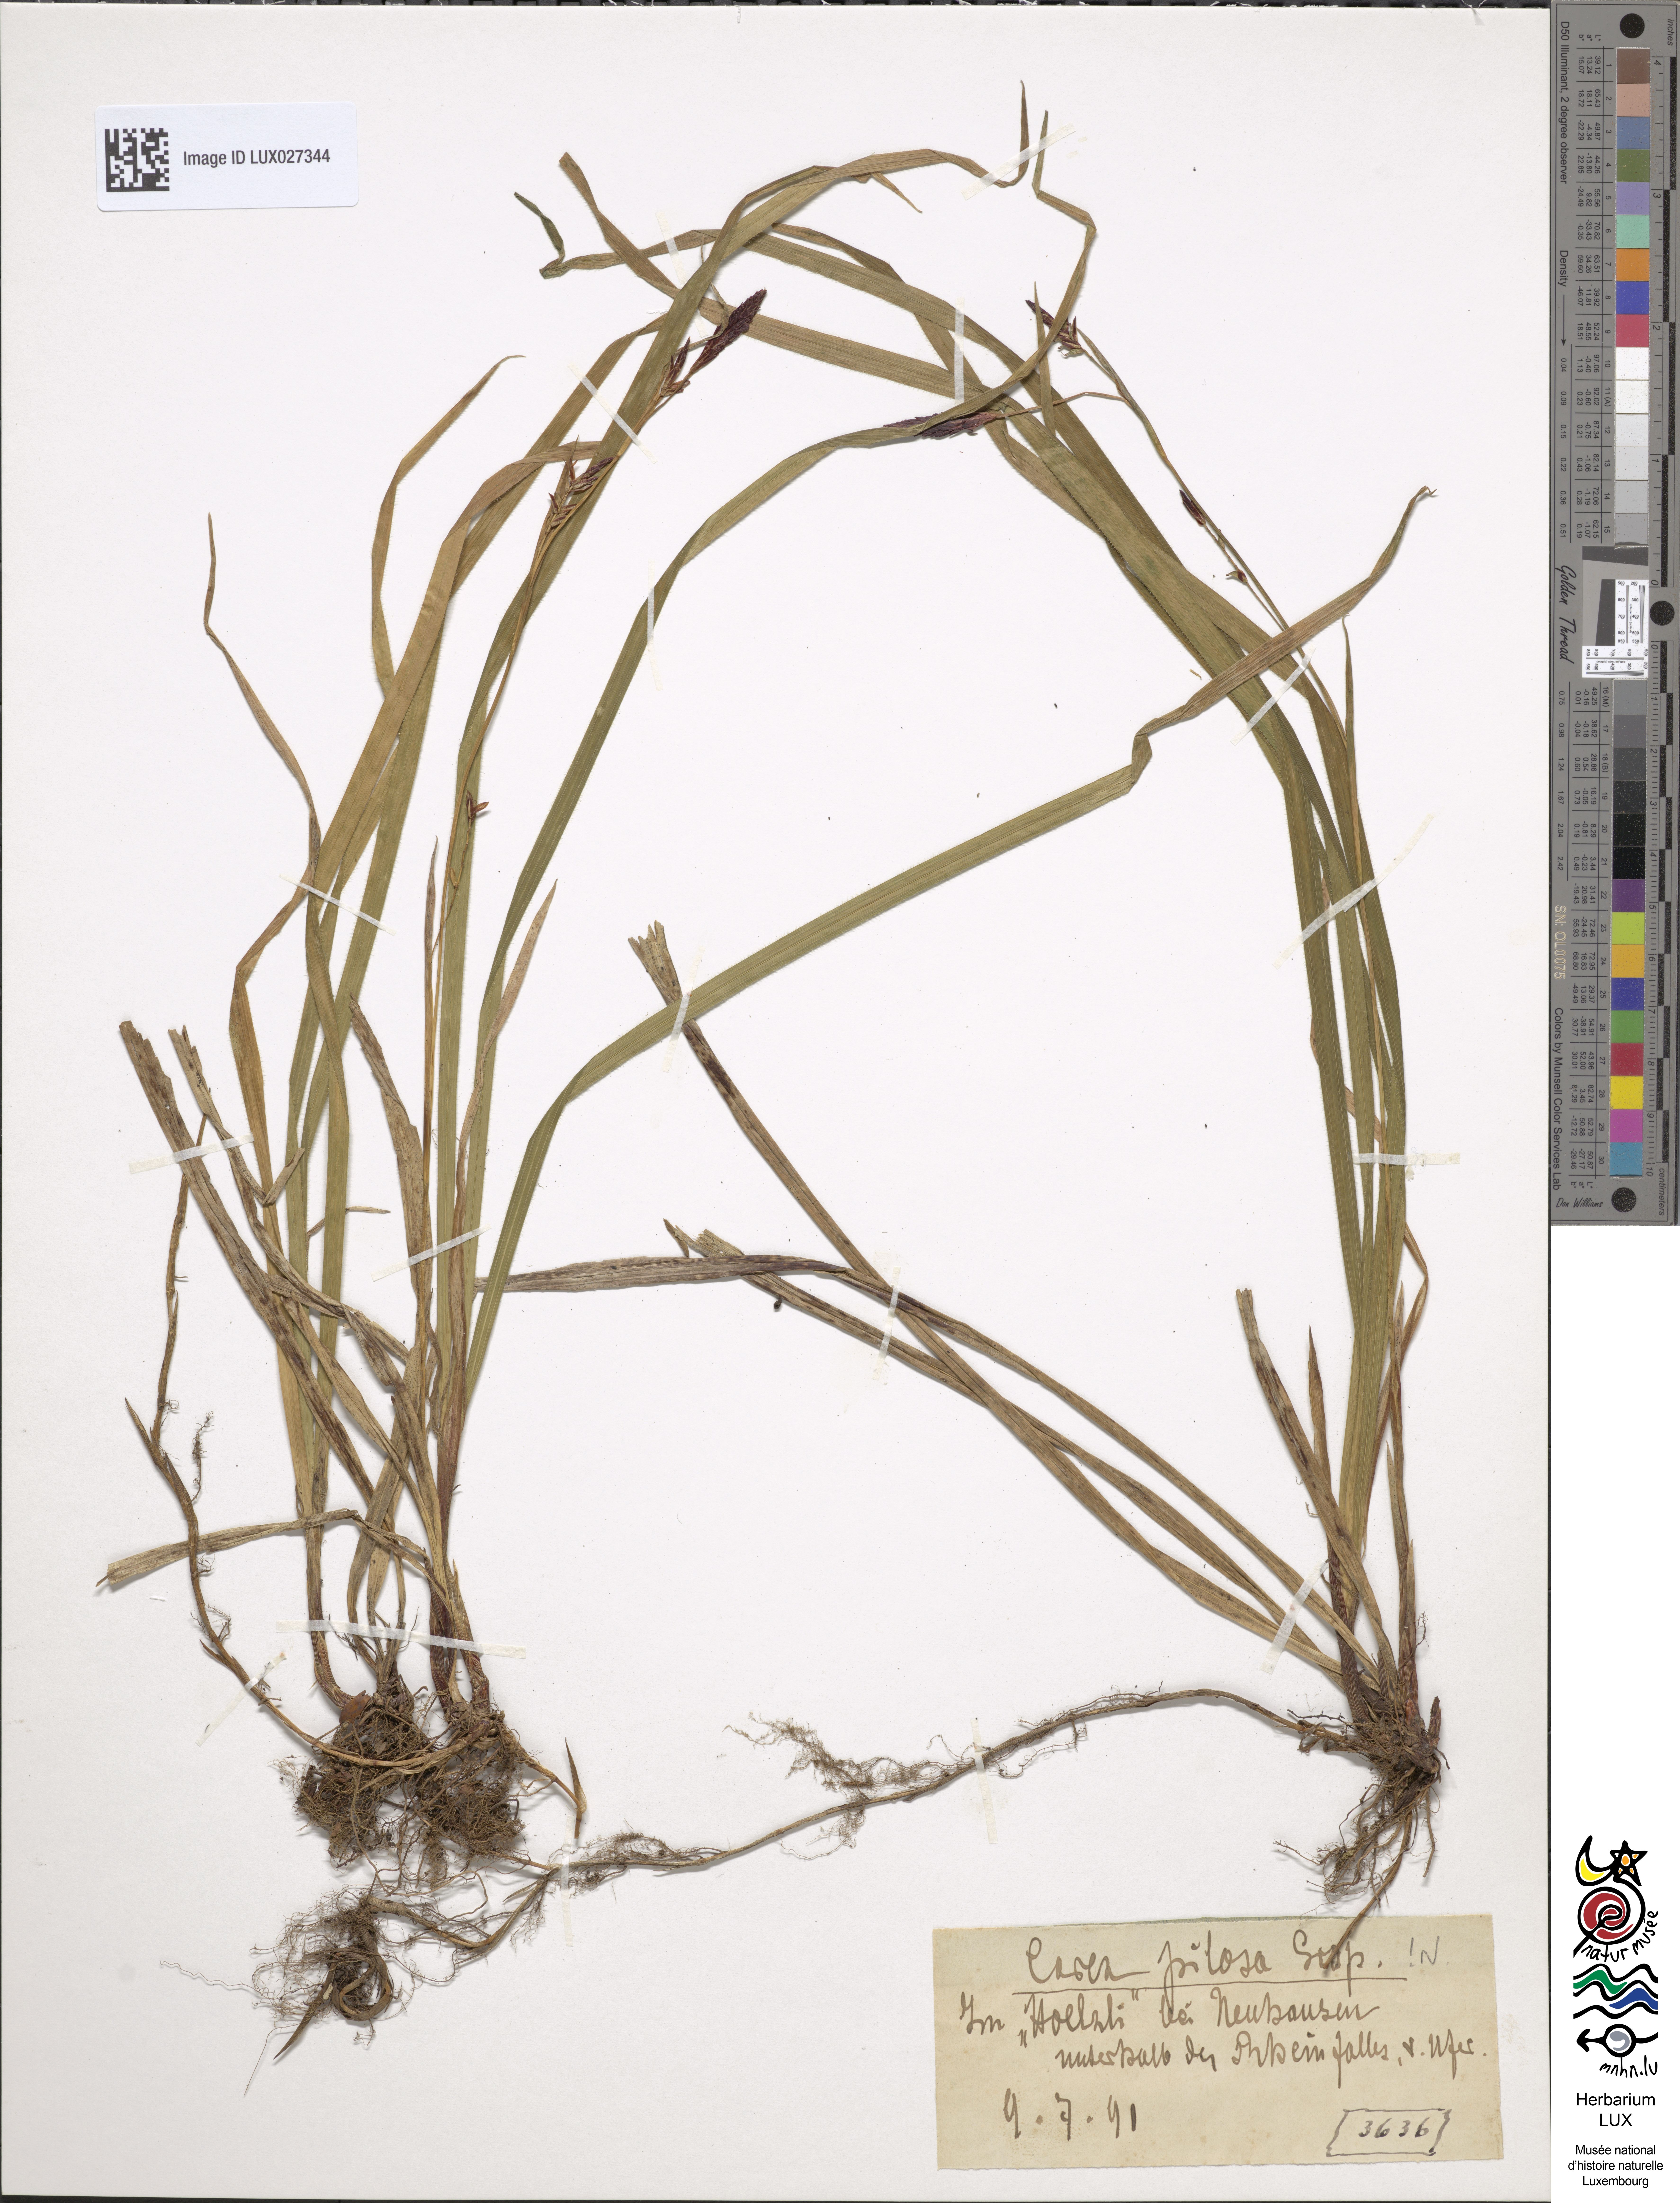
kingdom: Plantae
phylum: Tracheophyta
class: Liliopsida
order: Poales
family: Cyperaceae
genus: Carex
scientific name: Carex pilosa
